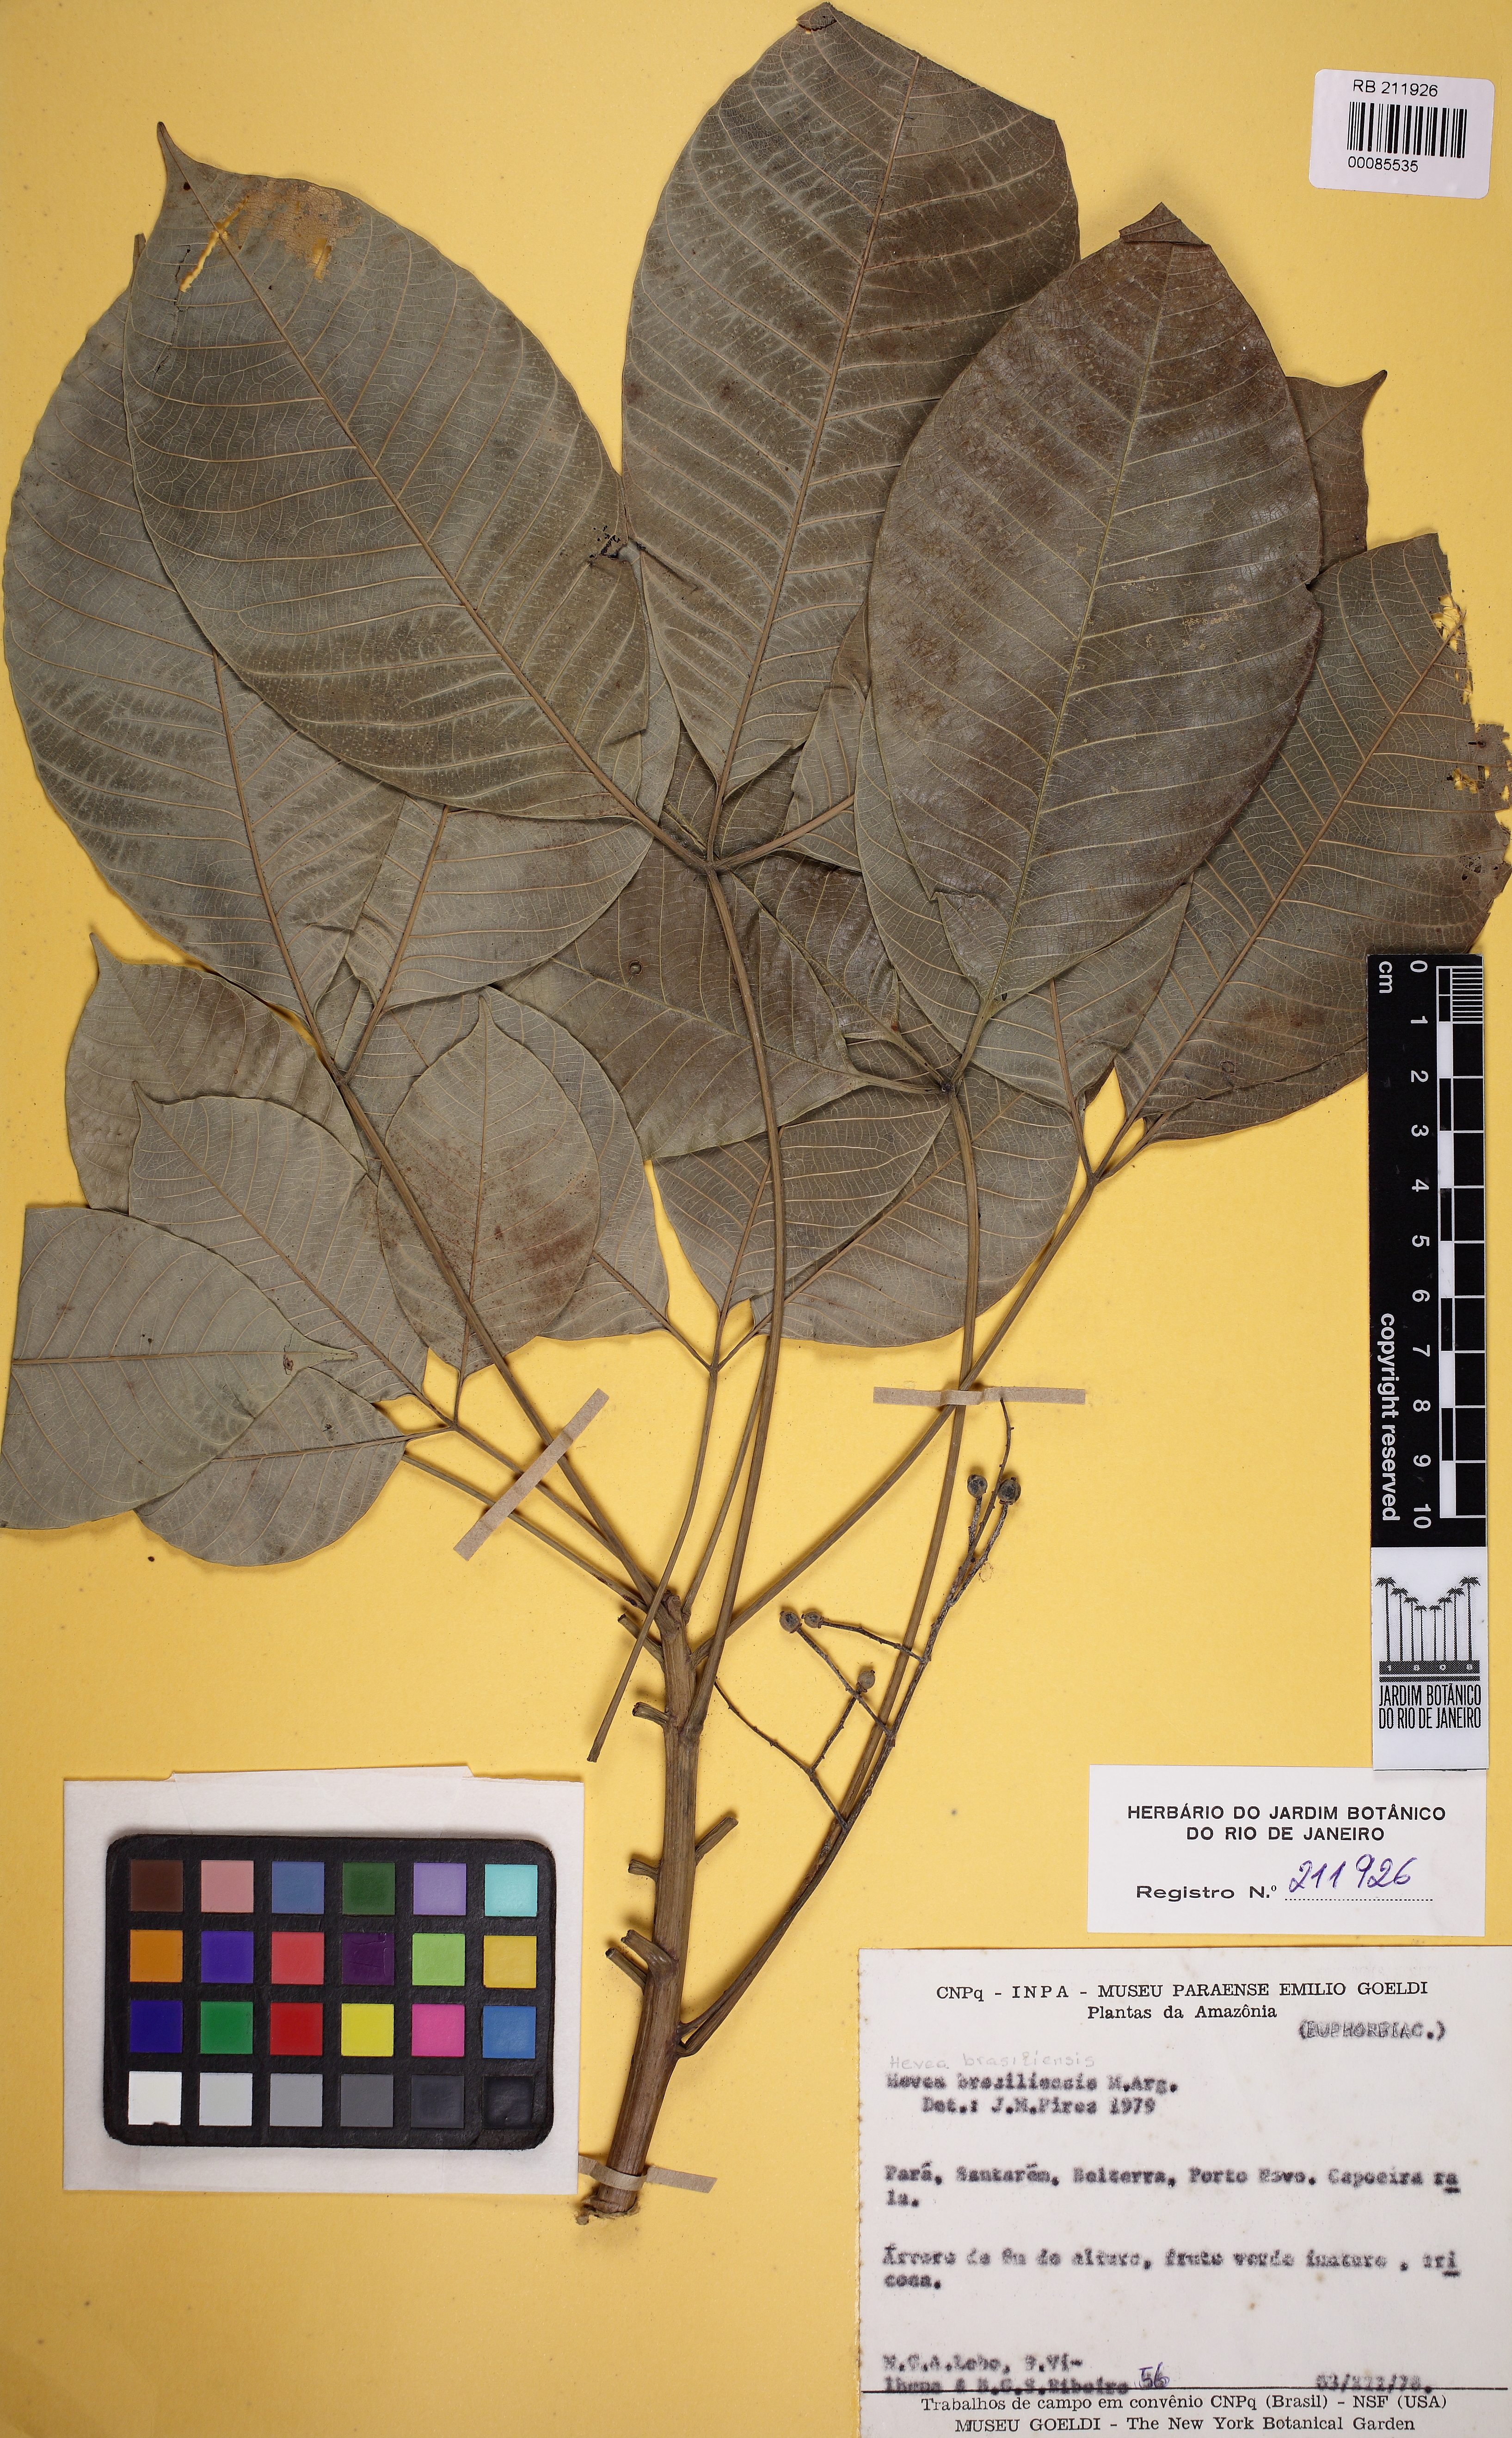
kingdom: Plantae
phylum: Tracheophyta
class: Magnoliopsida
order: Malpighiales
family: Euphorbiaceae
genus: Hevea
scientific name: Hevea brasiliensis
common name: Natural rubber
